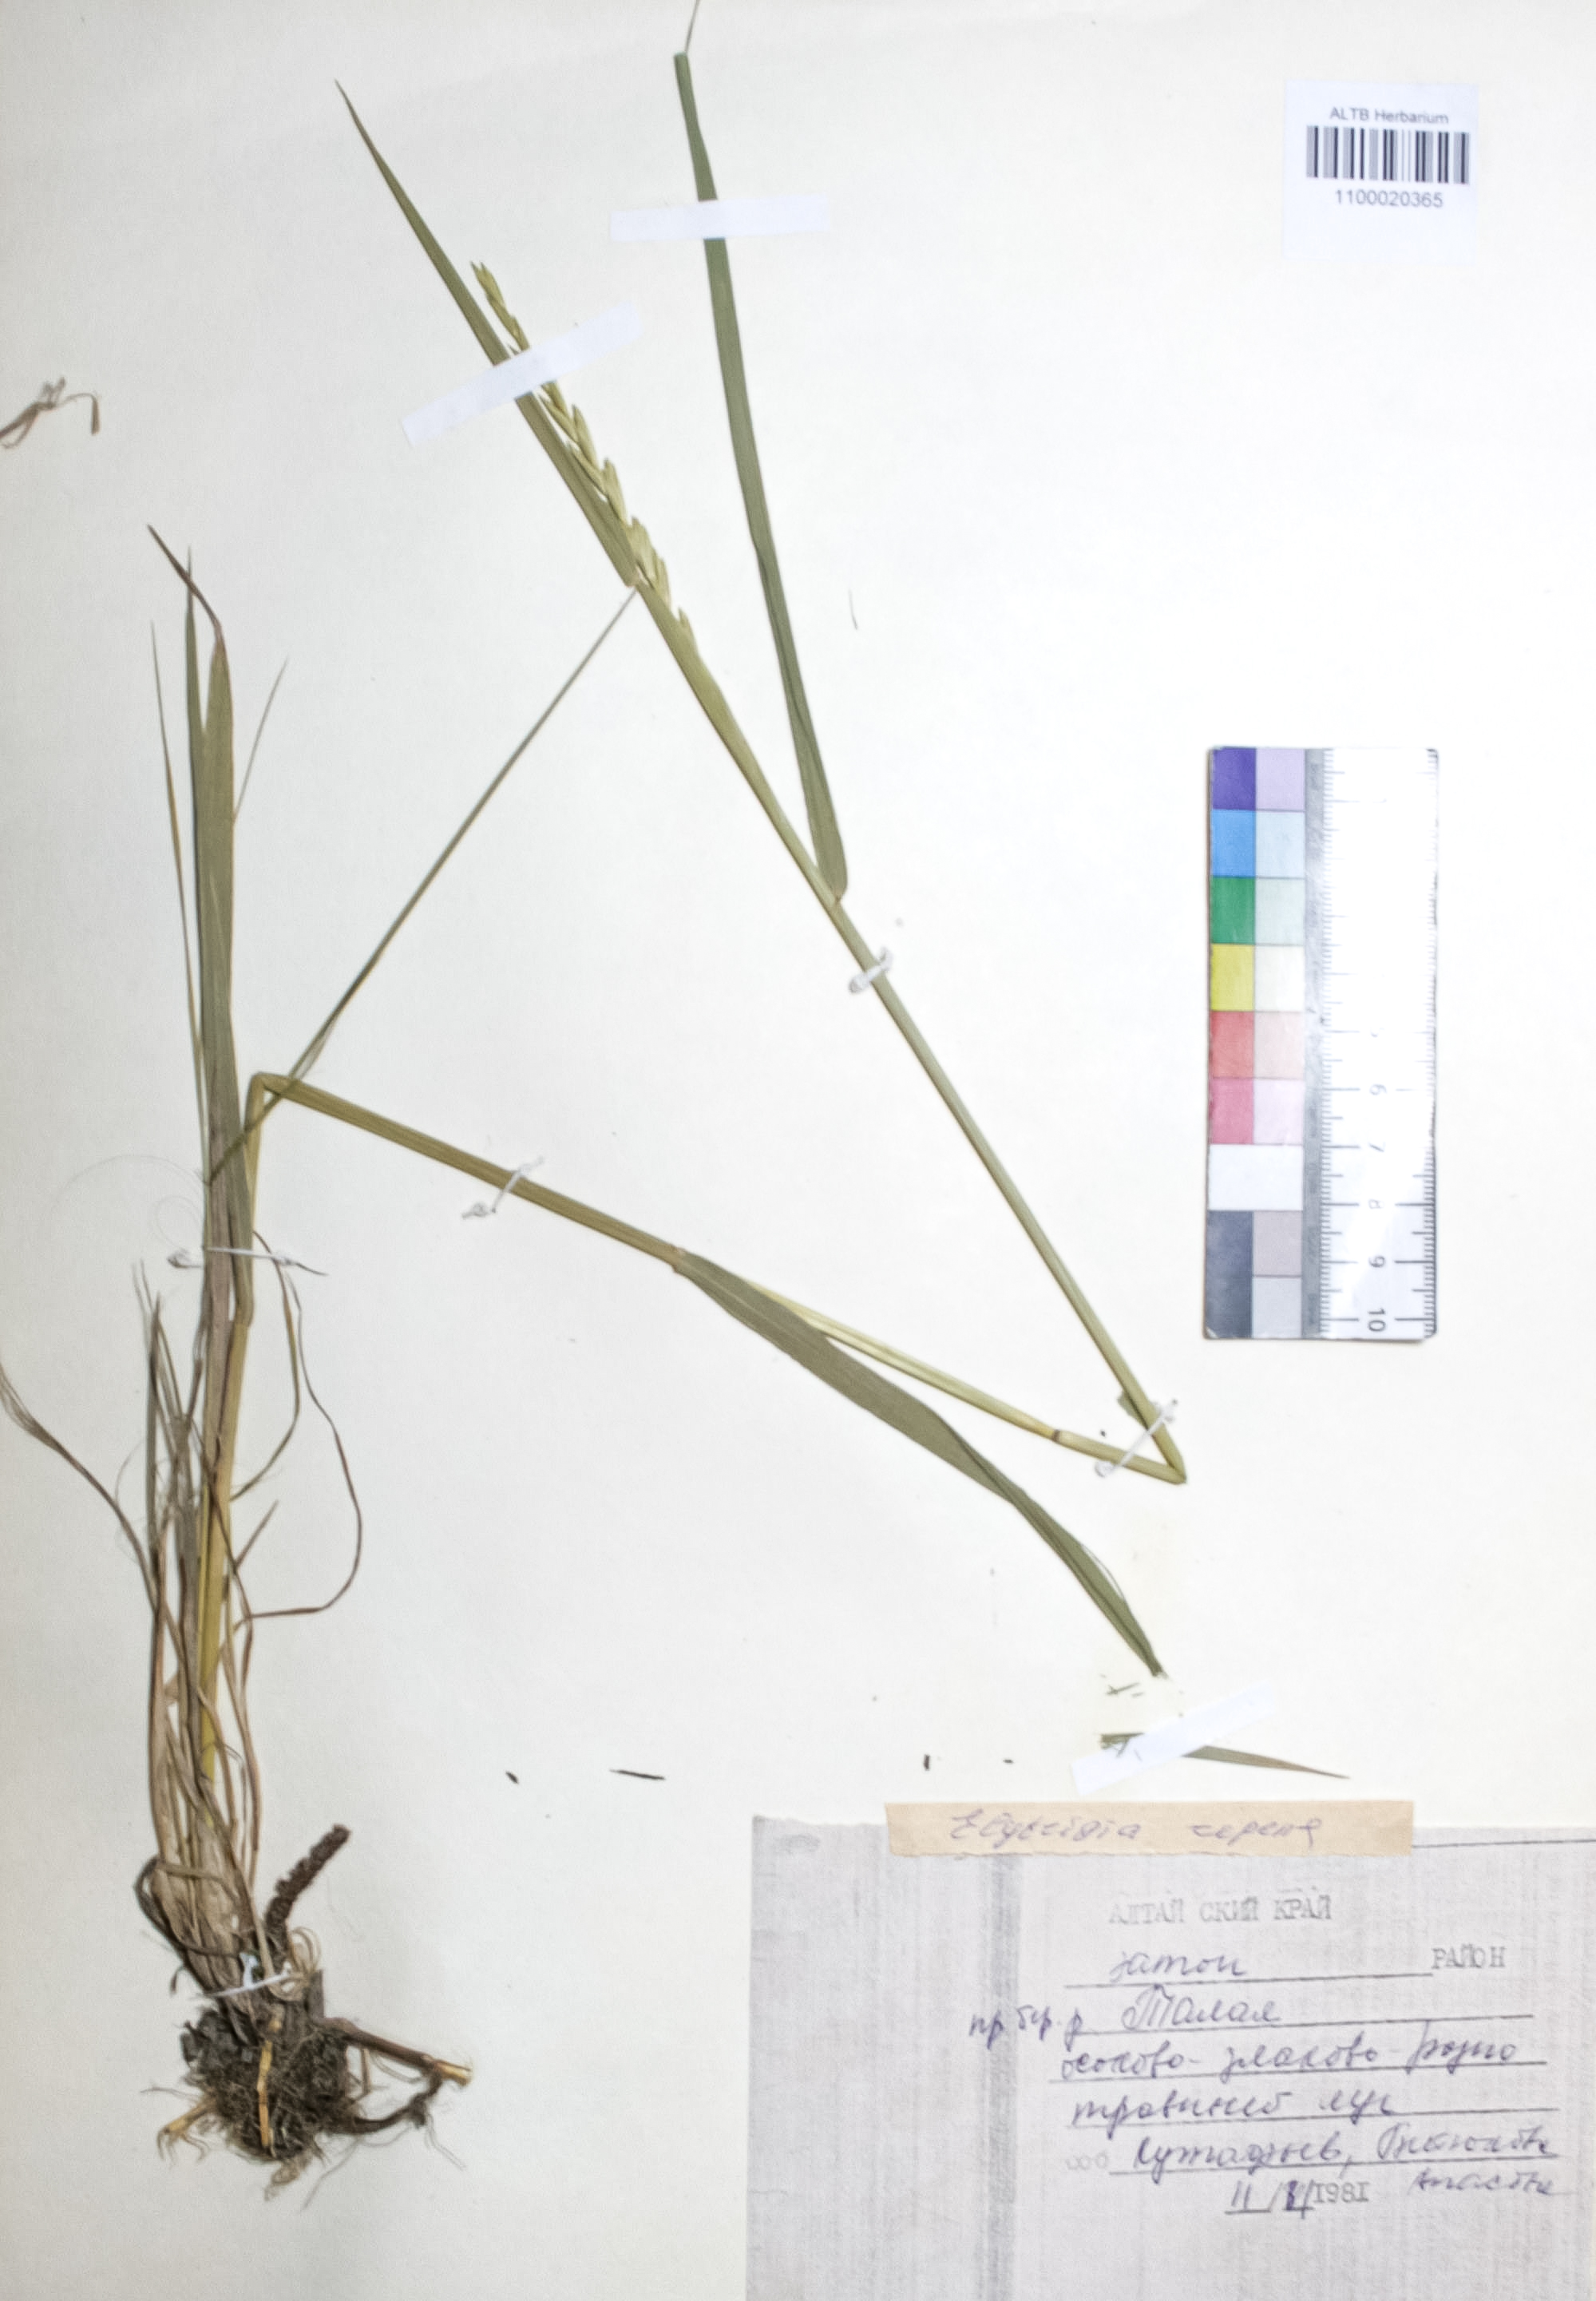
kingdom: Plantae
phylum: Tracheophyta
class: Liliopsida
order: Poales
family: Poaceae
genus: Elymus
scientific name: Elymus repens
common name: Quackgrass
